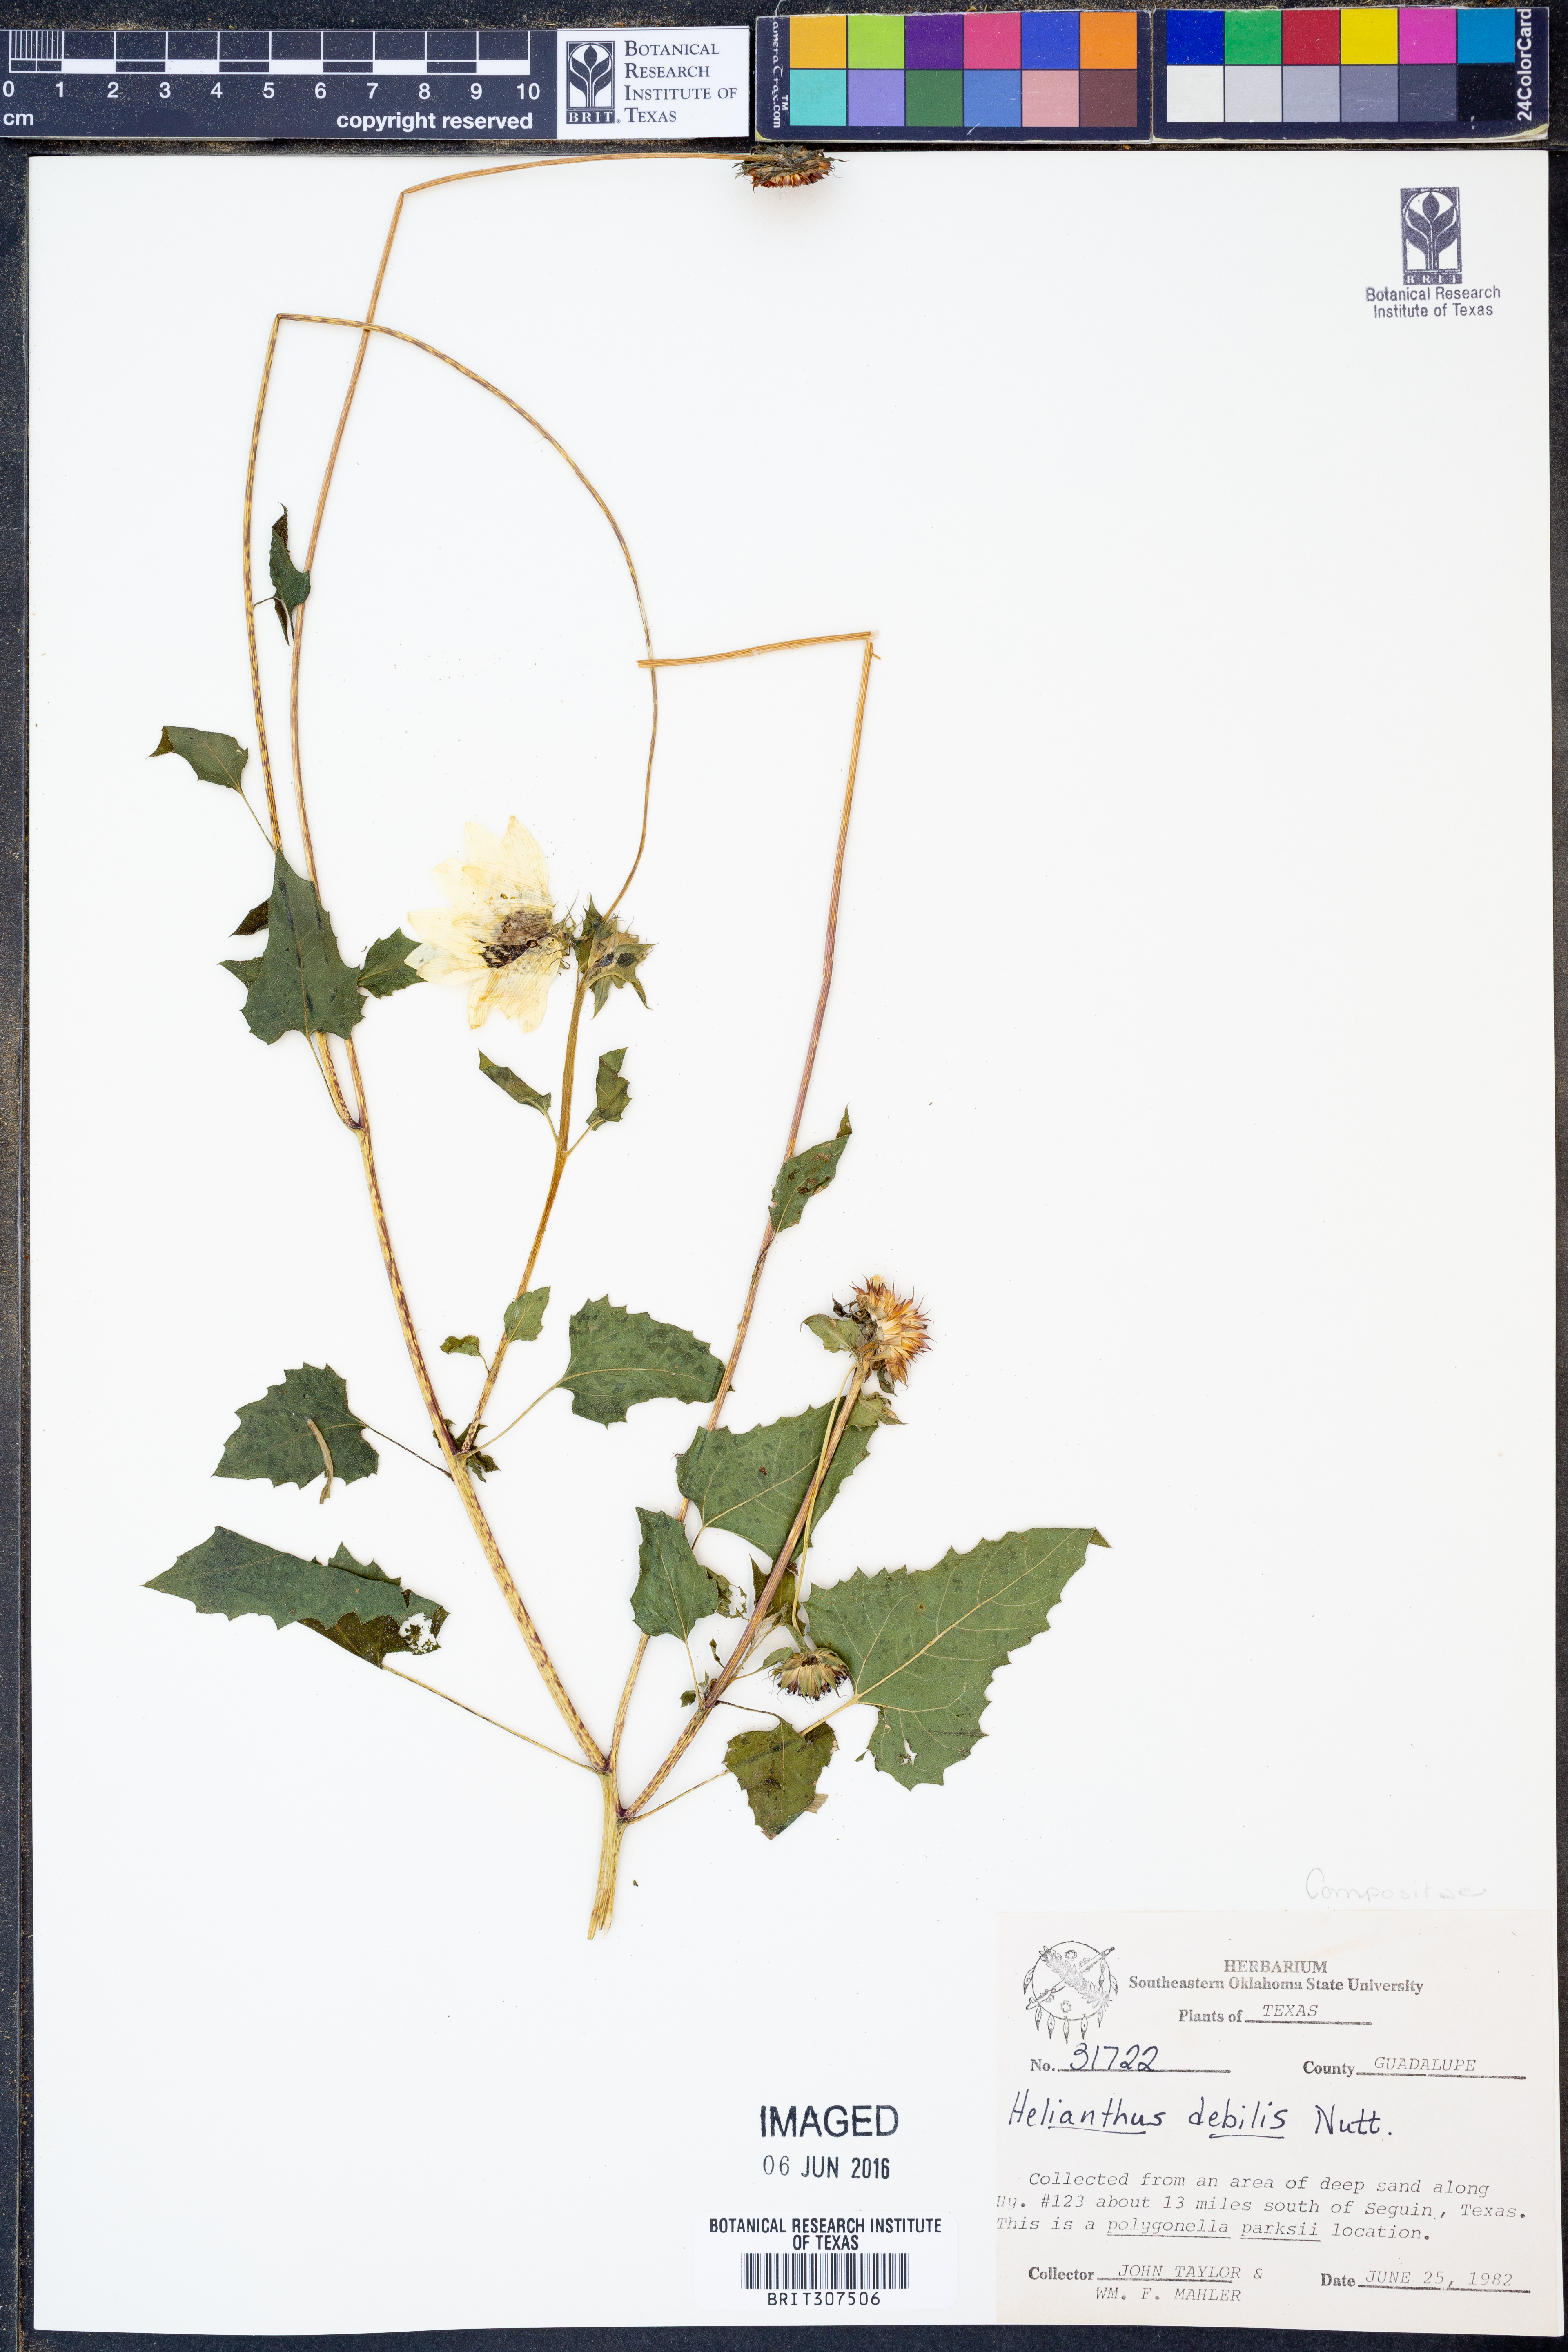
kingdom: Plantae
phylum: Tracheophyta
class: Magnoliopsida
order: Asterales
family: Asteraceae
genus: Helianthus
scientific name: Helianthus debilis
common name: Weak sunflower
